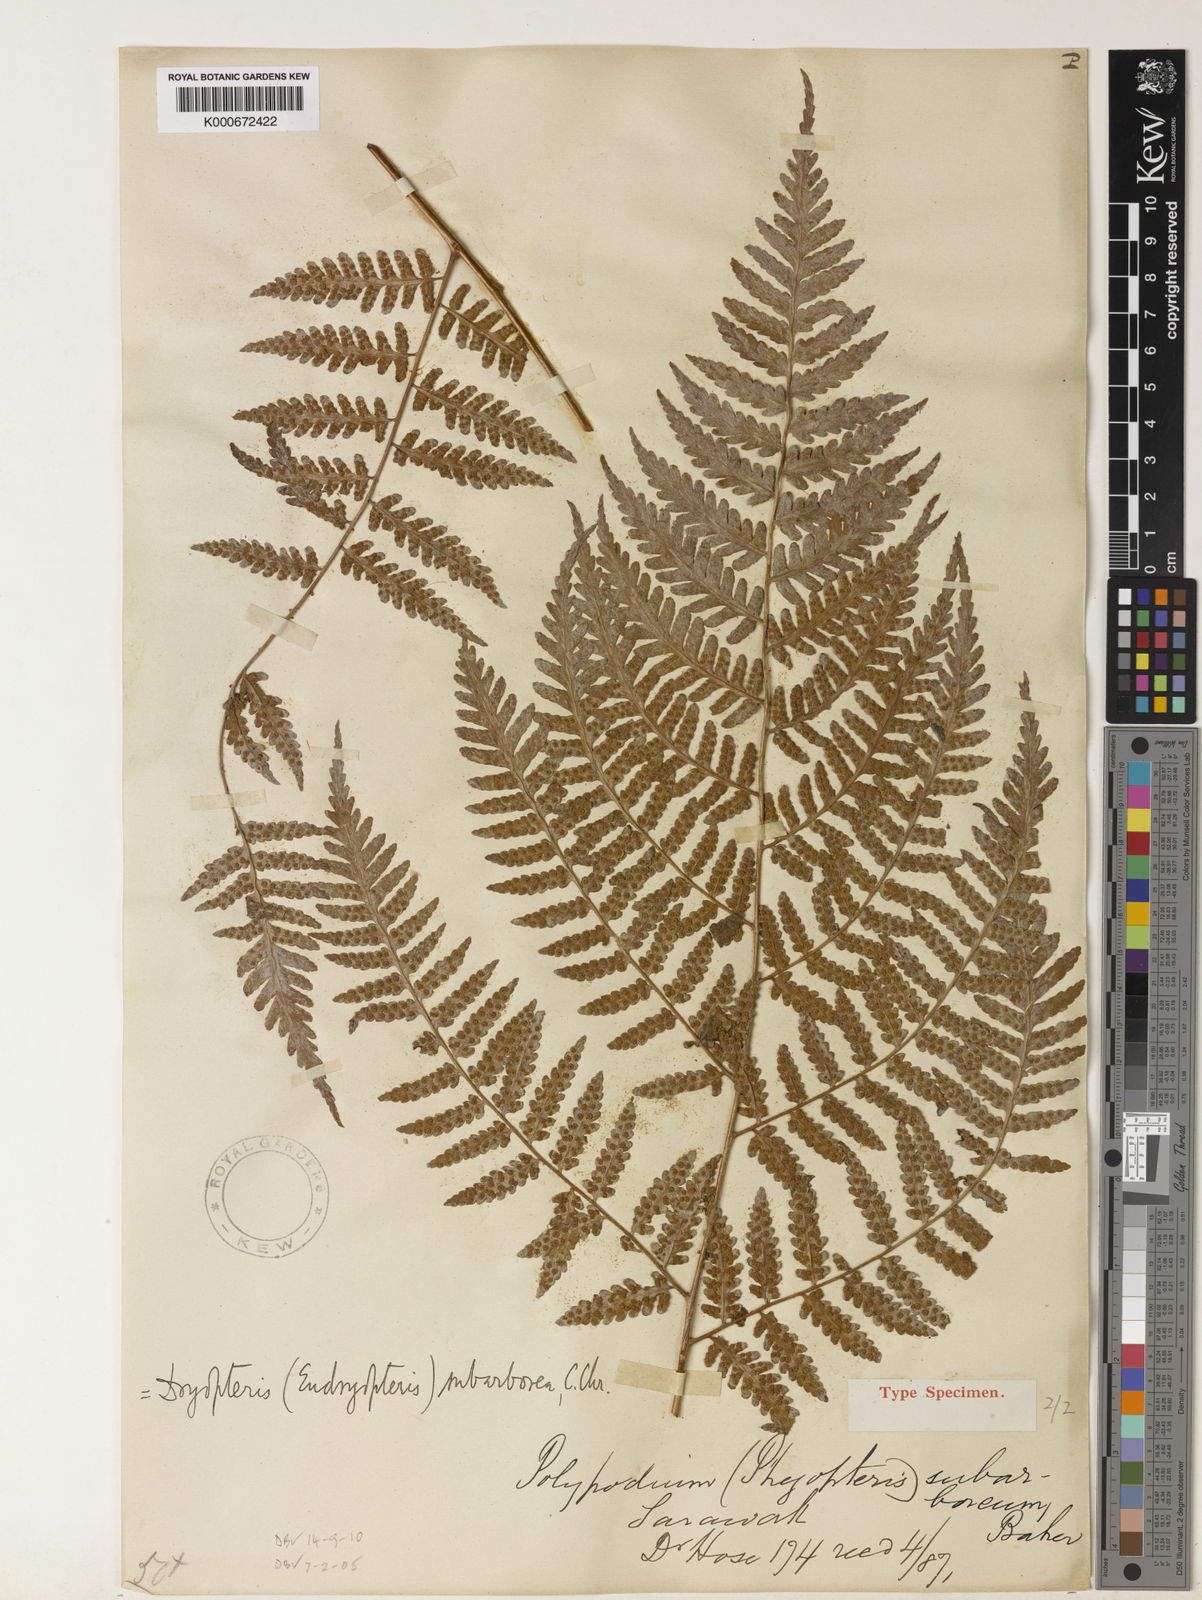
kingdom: Plantae
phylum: Tracheophyta
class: Polypodiopsida
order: Polypodiales
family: Dryopteridaceae
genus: Dryopteris
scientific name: Dryopteris subarborea
